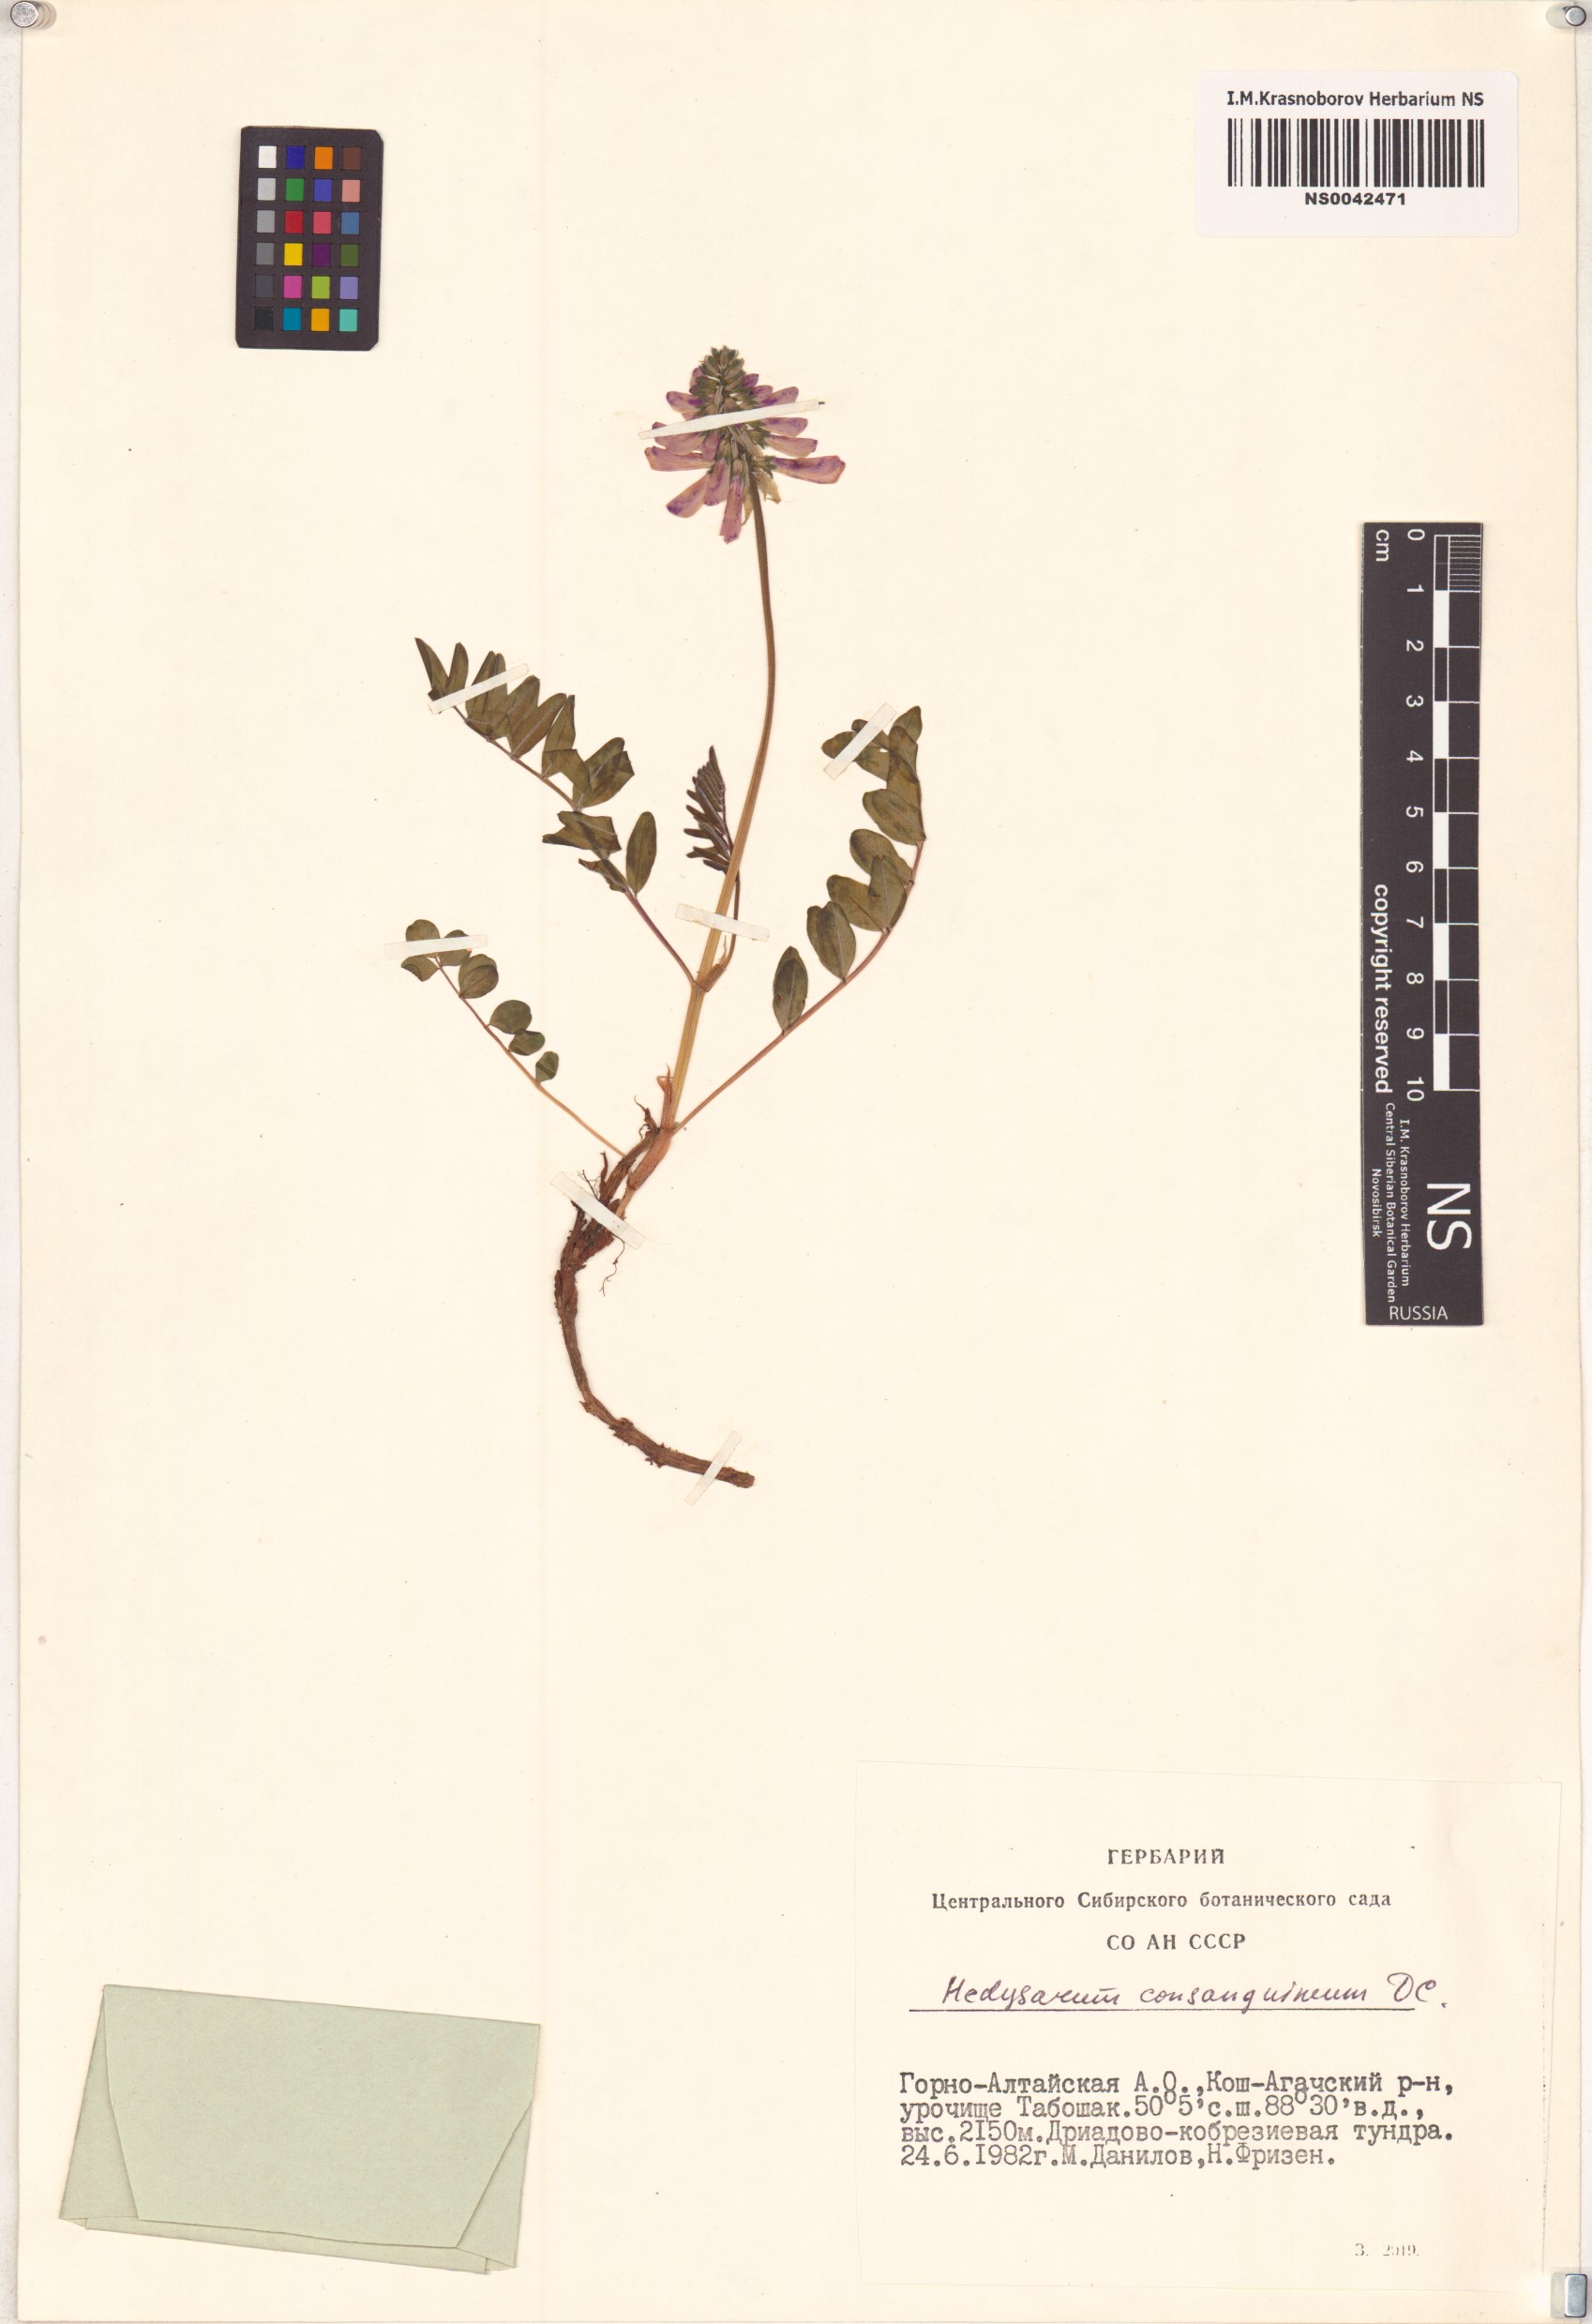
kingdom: Plantae
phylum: Tracheophyta
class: Magnoliopsida
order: Fabales
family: Fabaceae
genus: Hedysarum
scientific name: Hedysarum consanguineum
